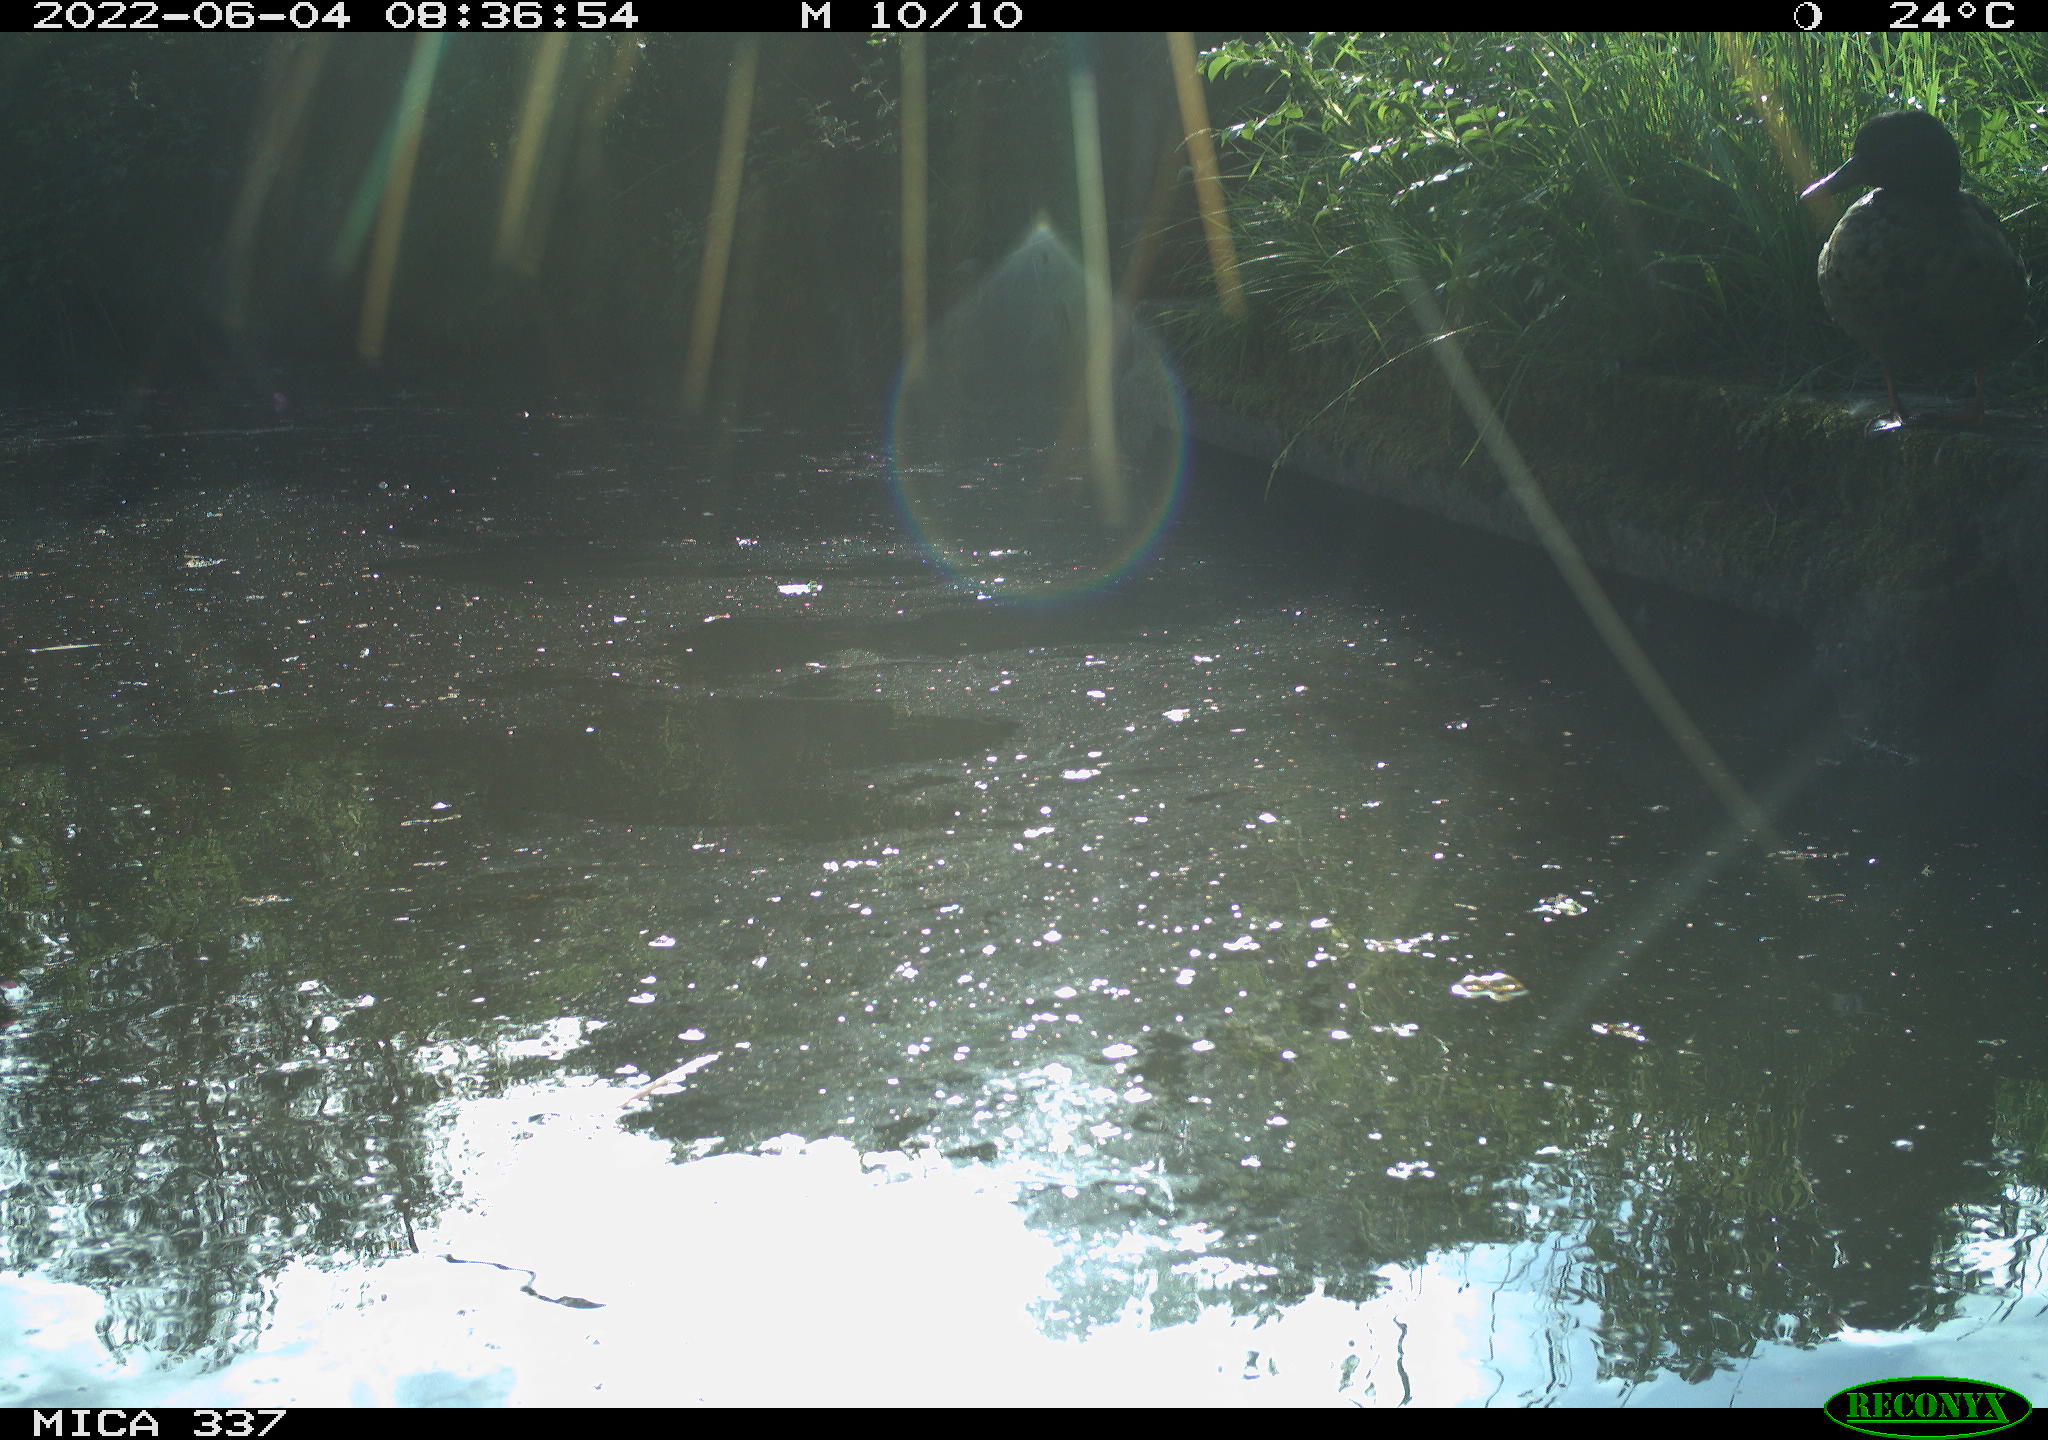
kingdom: Animalia
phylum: Chordata
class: Aves
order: Anseriformes
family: Anatidae
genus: Anas
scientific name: Anas platyrhynchos
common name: Mallard
